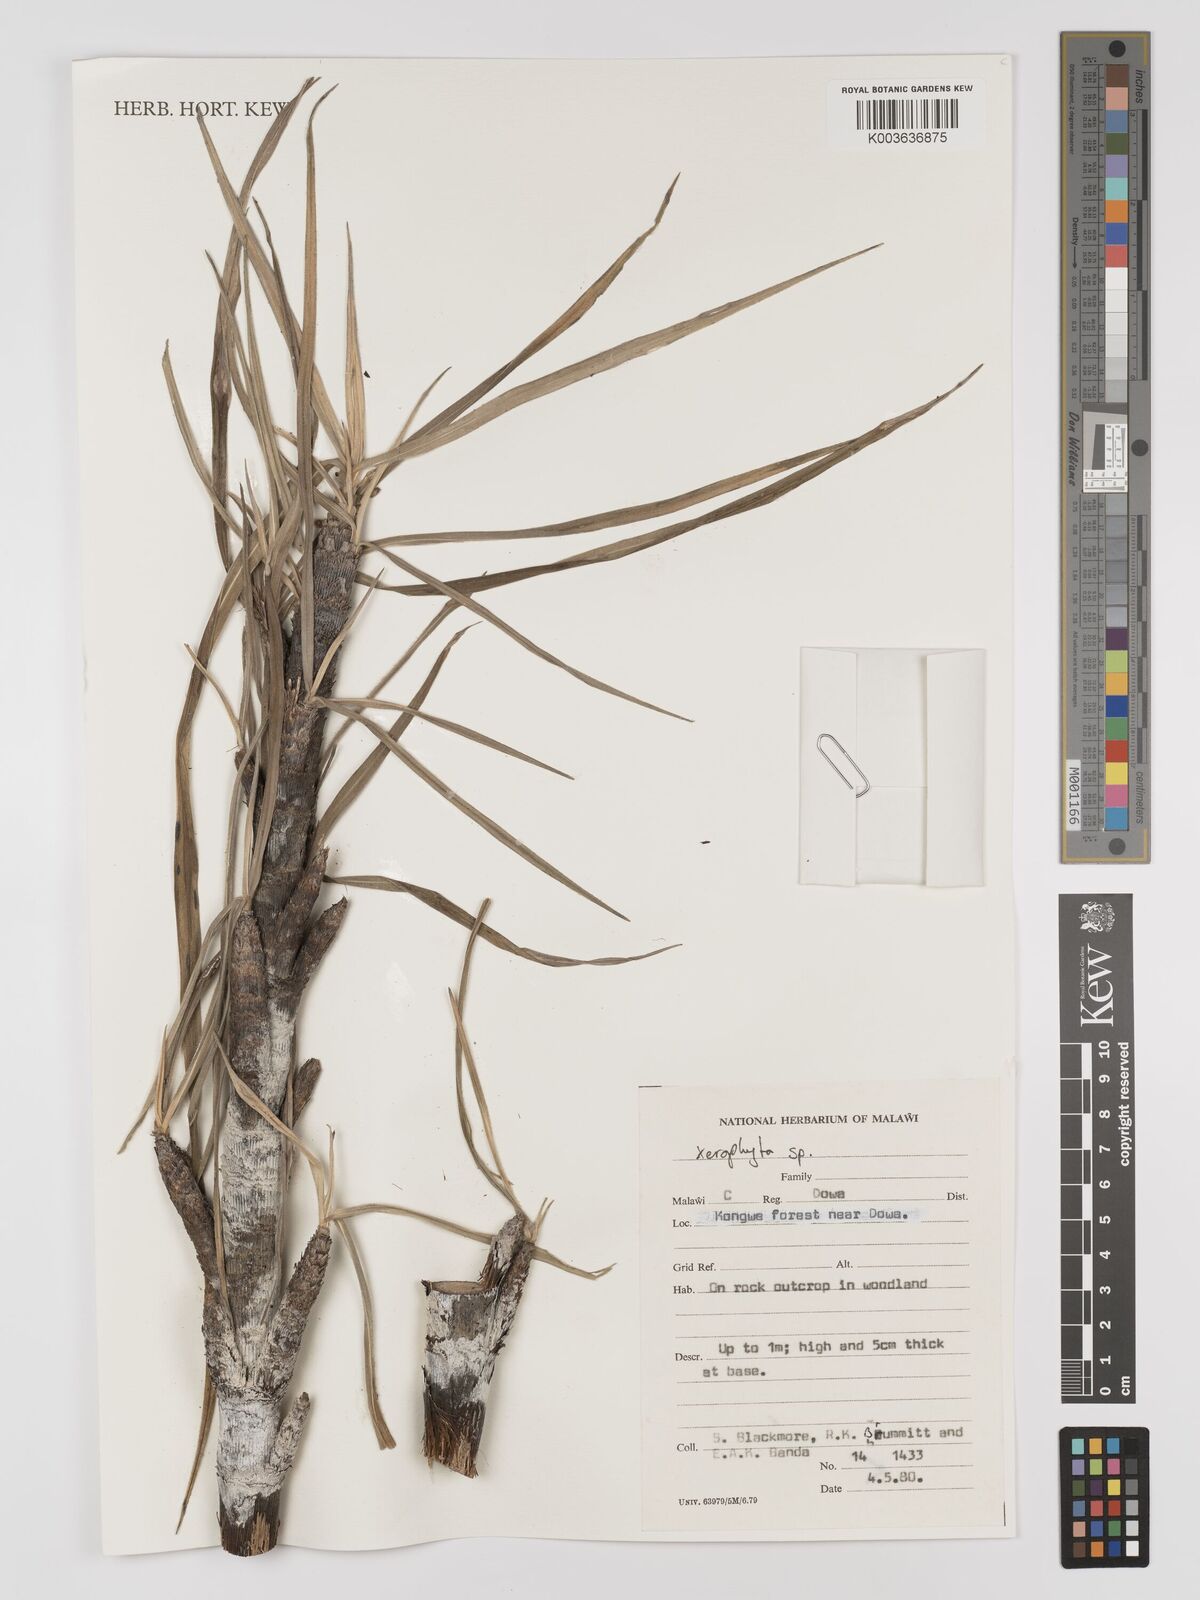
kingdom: Plantae
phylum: Tracheophyta
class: Liliopsida
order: Pandanales
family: Velloziaceae
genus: Xerophyta
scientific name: Xerophyta
